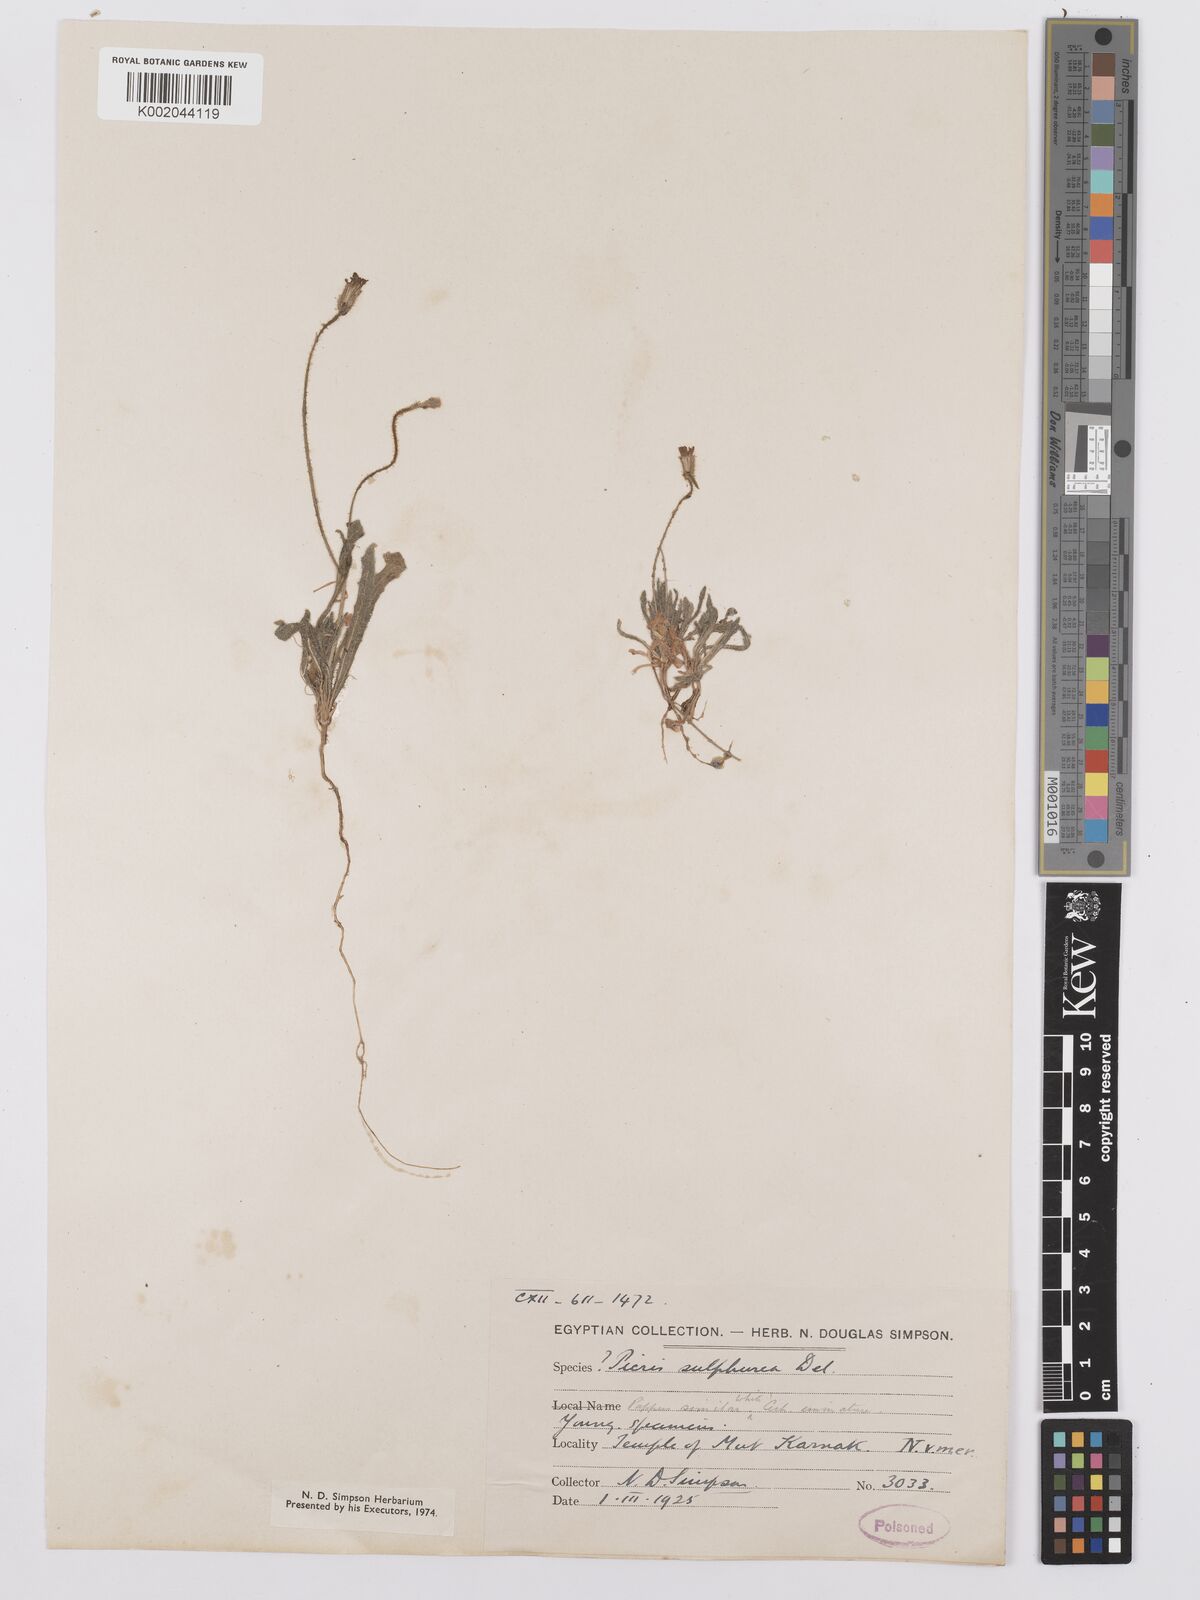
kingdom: Plantae
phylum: Tracheophyta
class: Magnoliopsida
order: Asterales
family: Asteraceae
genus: Picris
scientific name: Picris sulphurea
